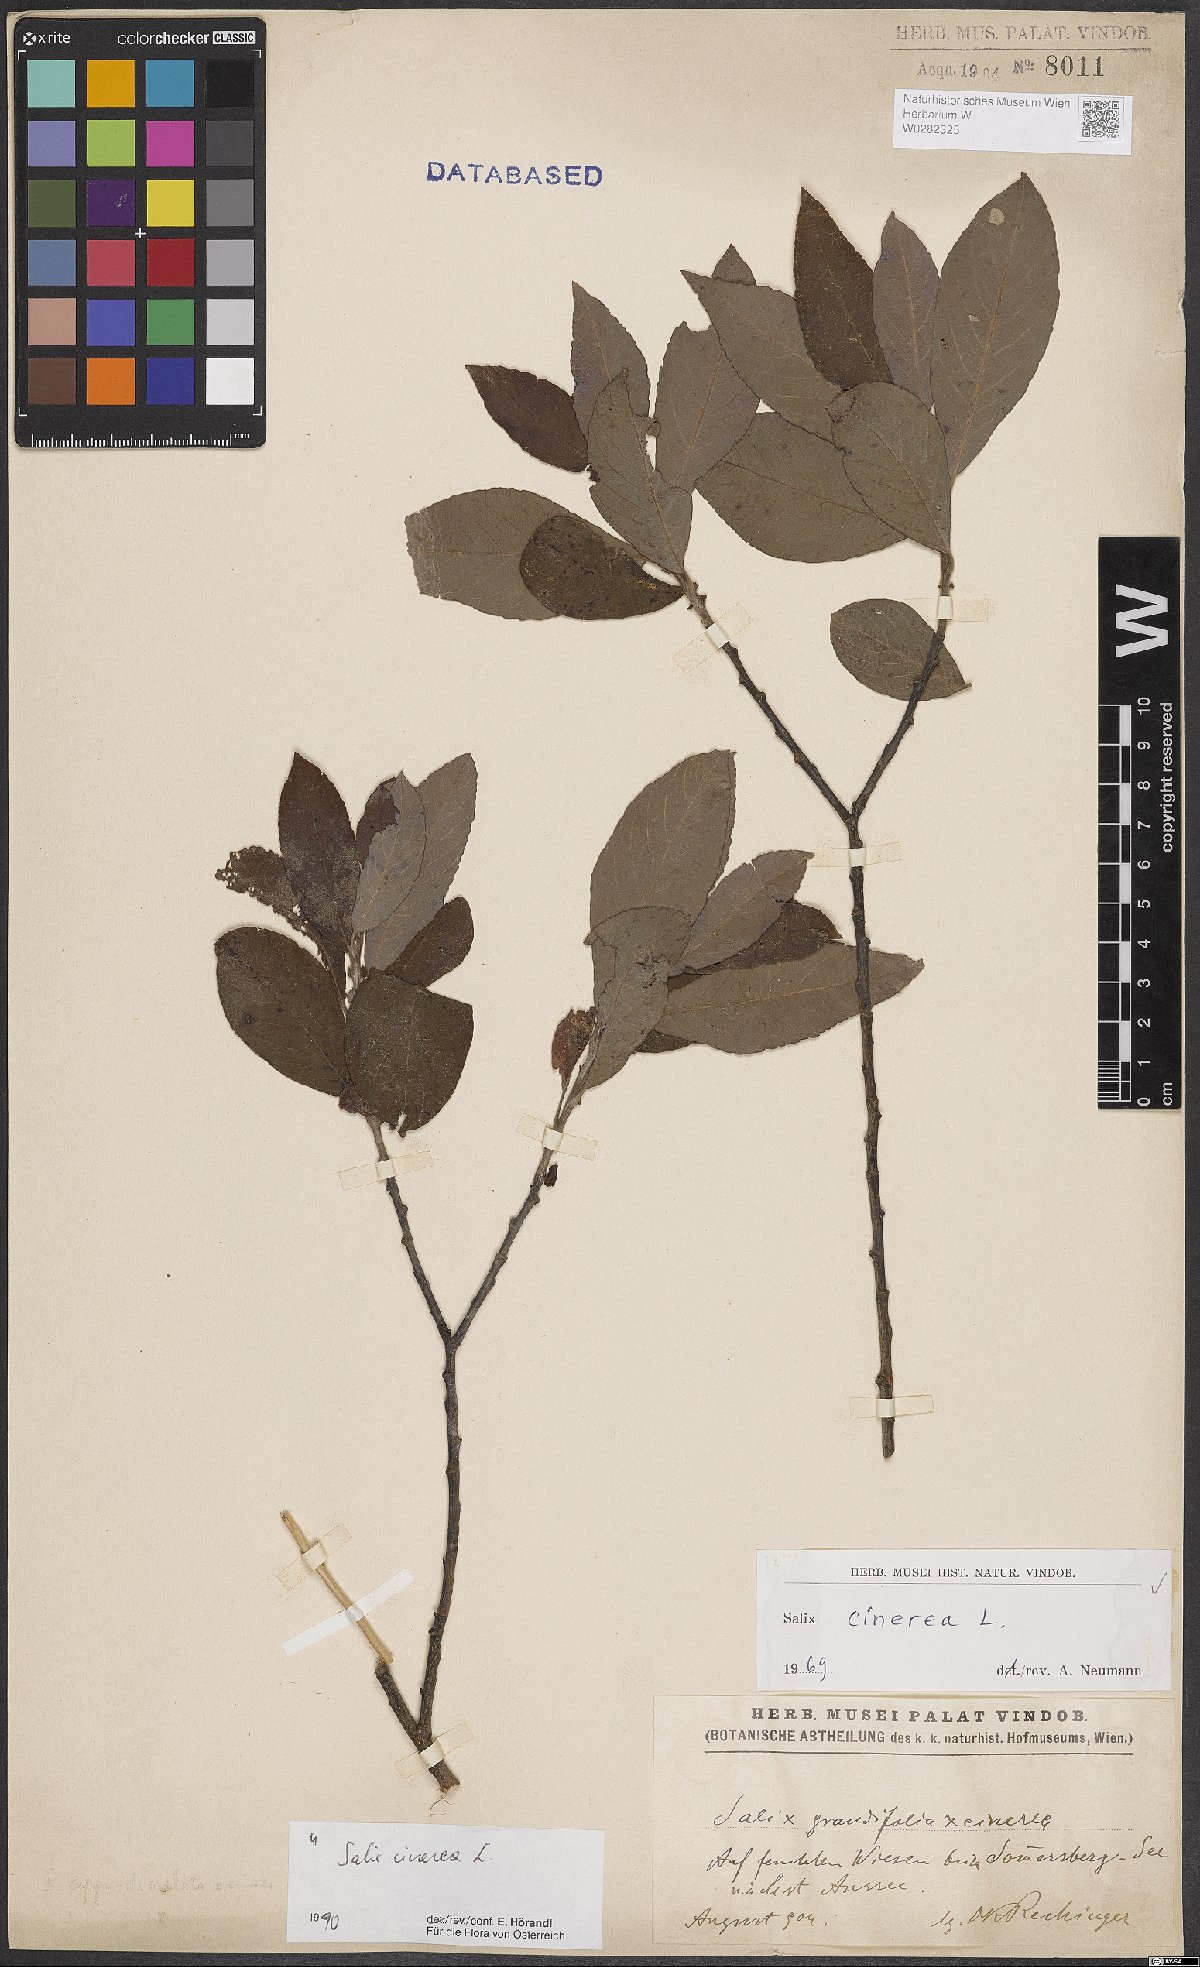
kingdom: Plantae
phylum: Tracheophyta
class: Magnoliopsida
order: Malpighiales
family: Salicaceae
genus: Salix
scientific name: Salix cinerea
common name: Common sallow
